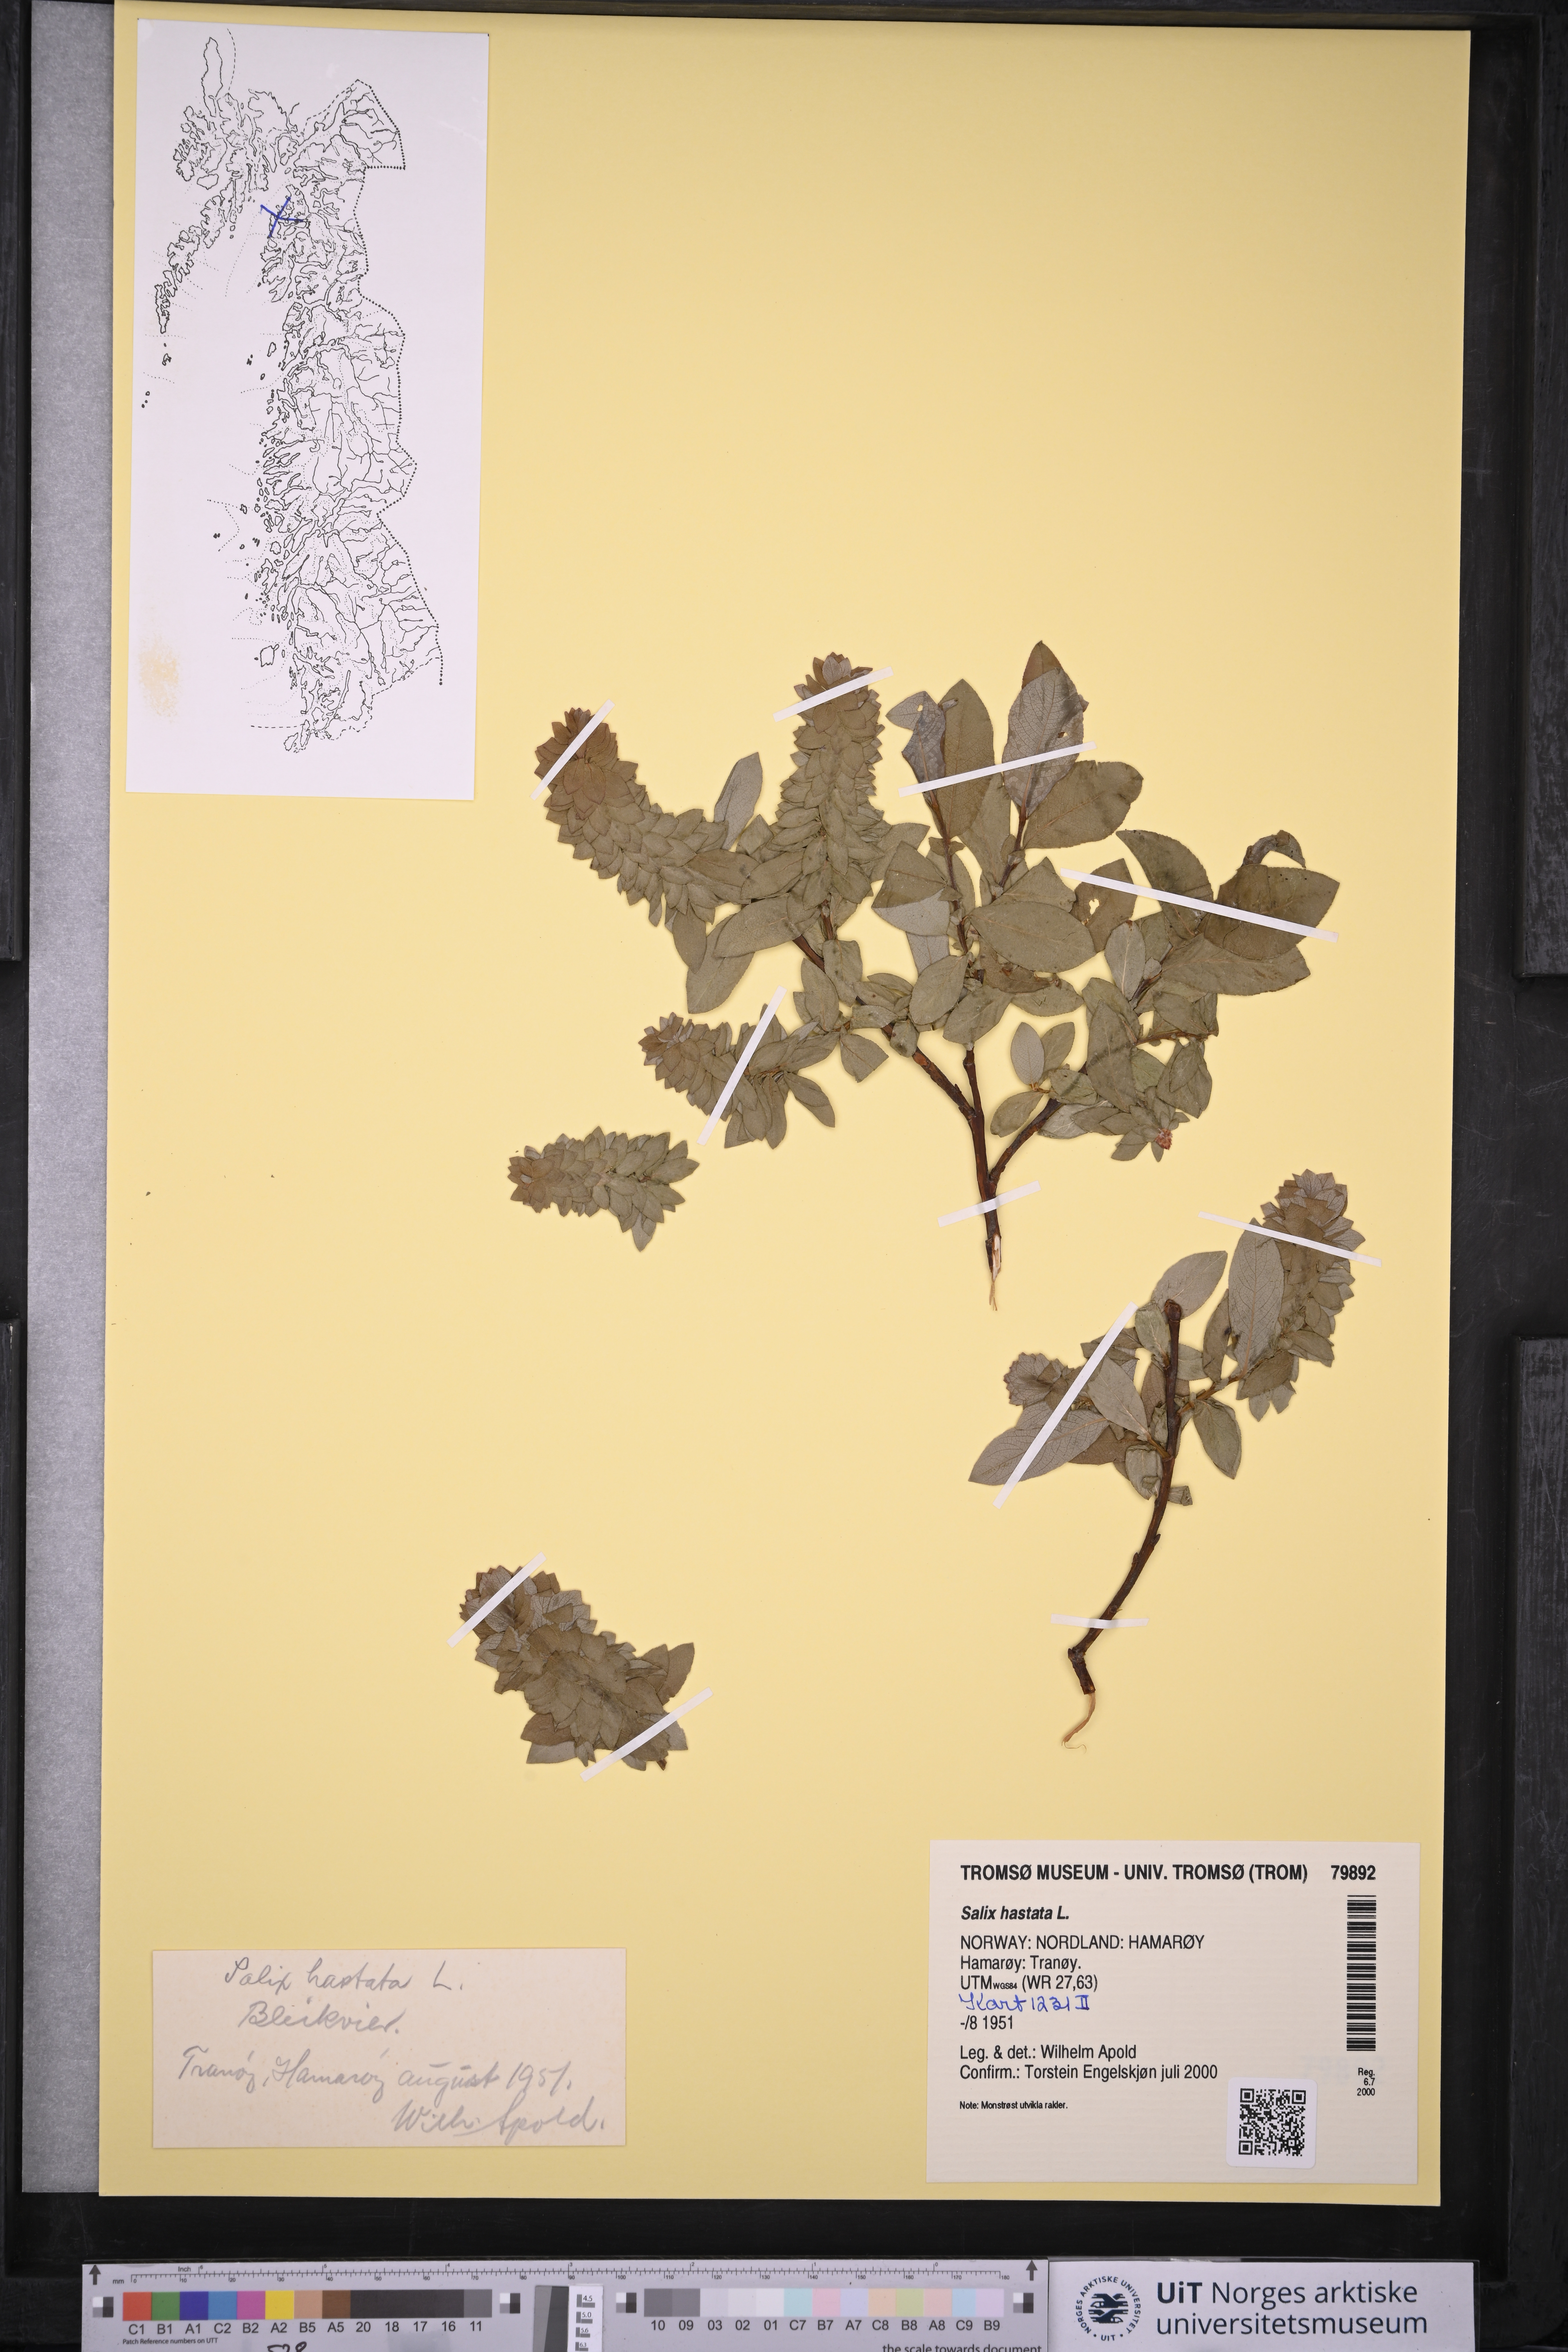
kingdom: Plantae
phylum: Tracheophyta
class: Magnoliopsida
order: Malpighiales
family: Salicaceae
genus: Salix
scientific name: Salix hastata
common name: Halberd willow
